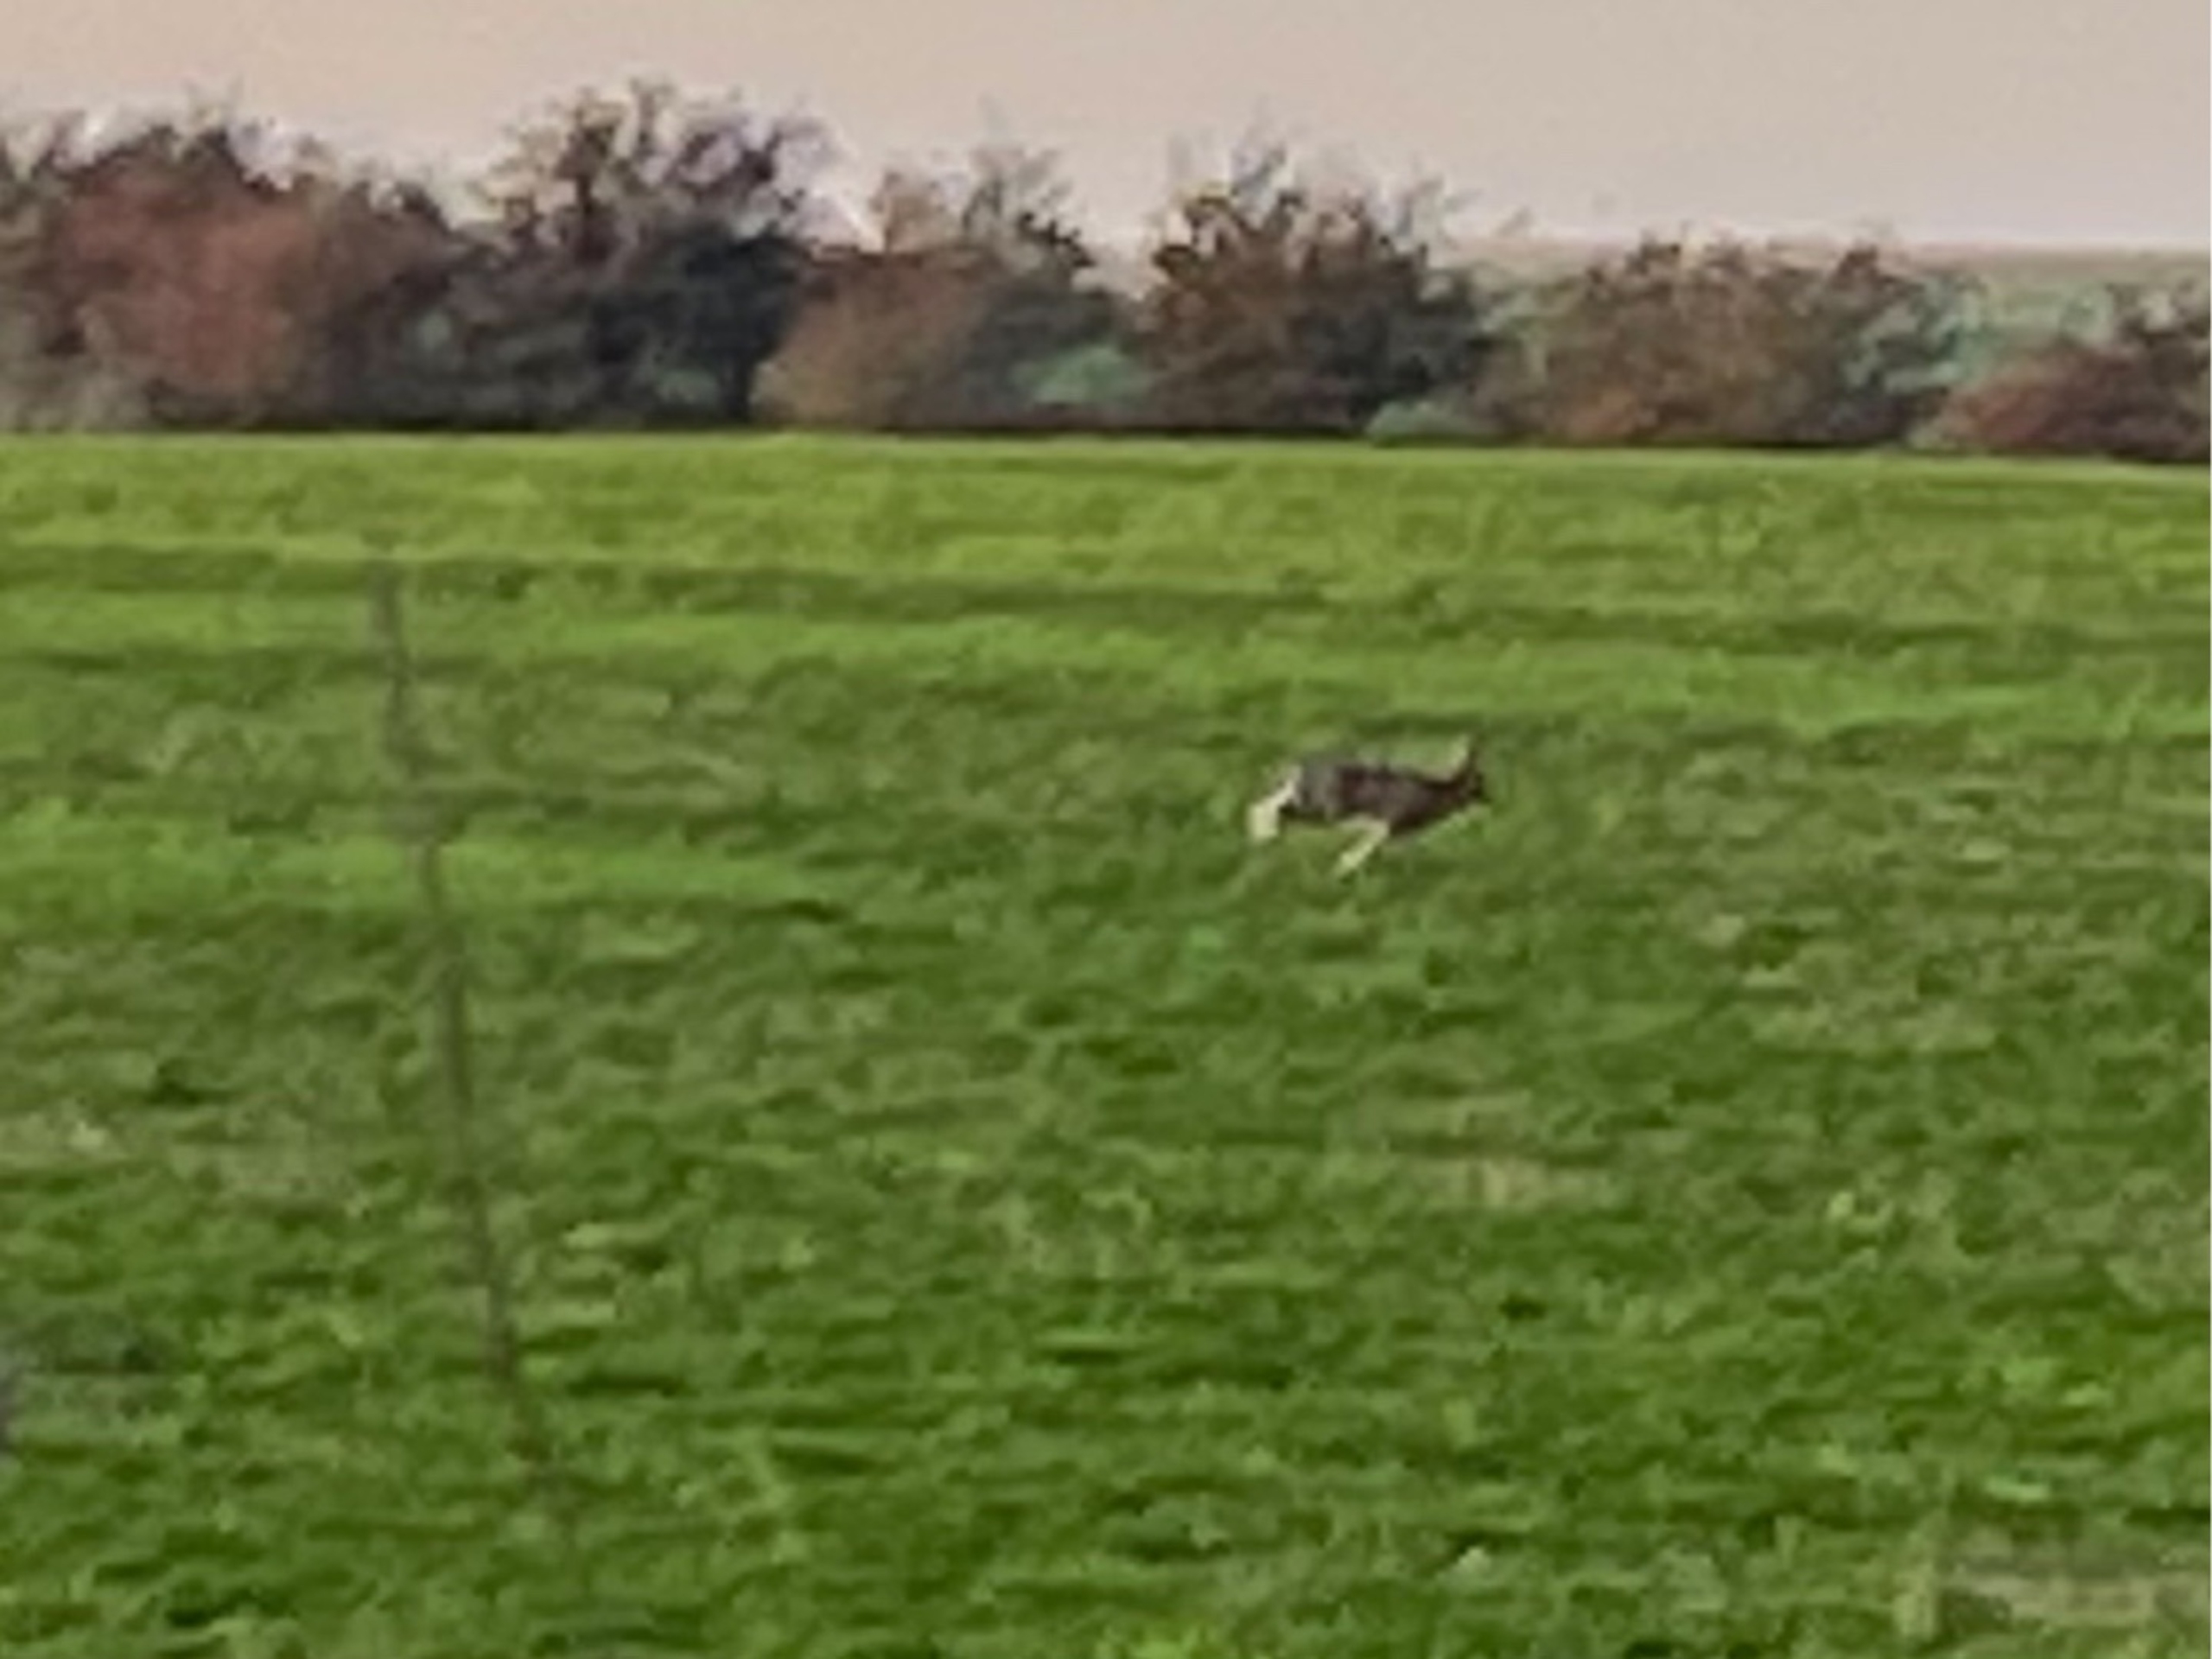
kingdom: Animalia
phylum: Chordata
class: Mammalia
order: Lagomorpha
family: Leporidae
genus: Lepus
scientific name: Lepus europaeus
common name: Hare
